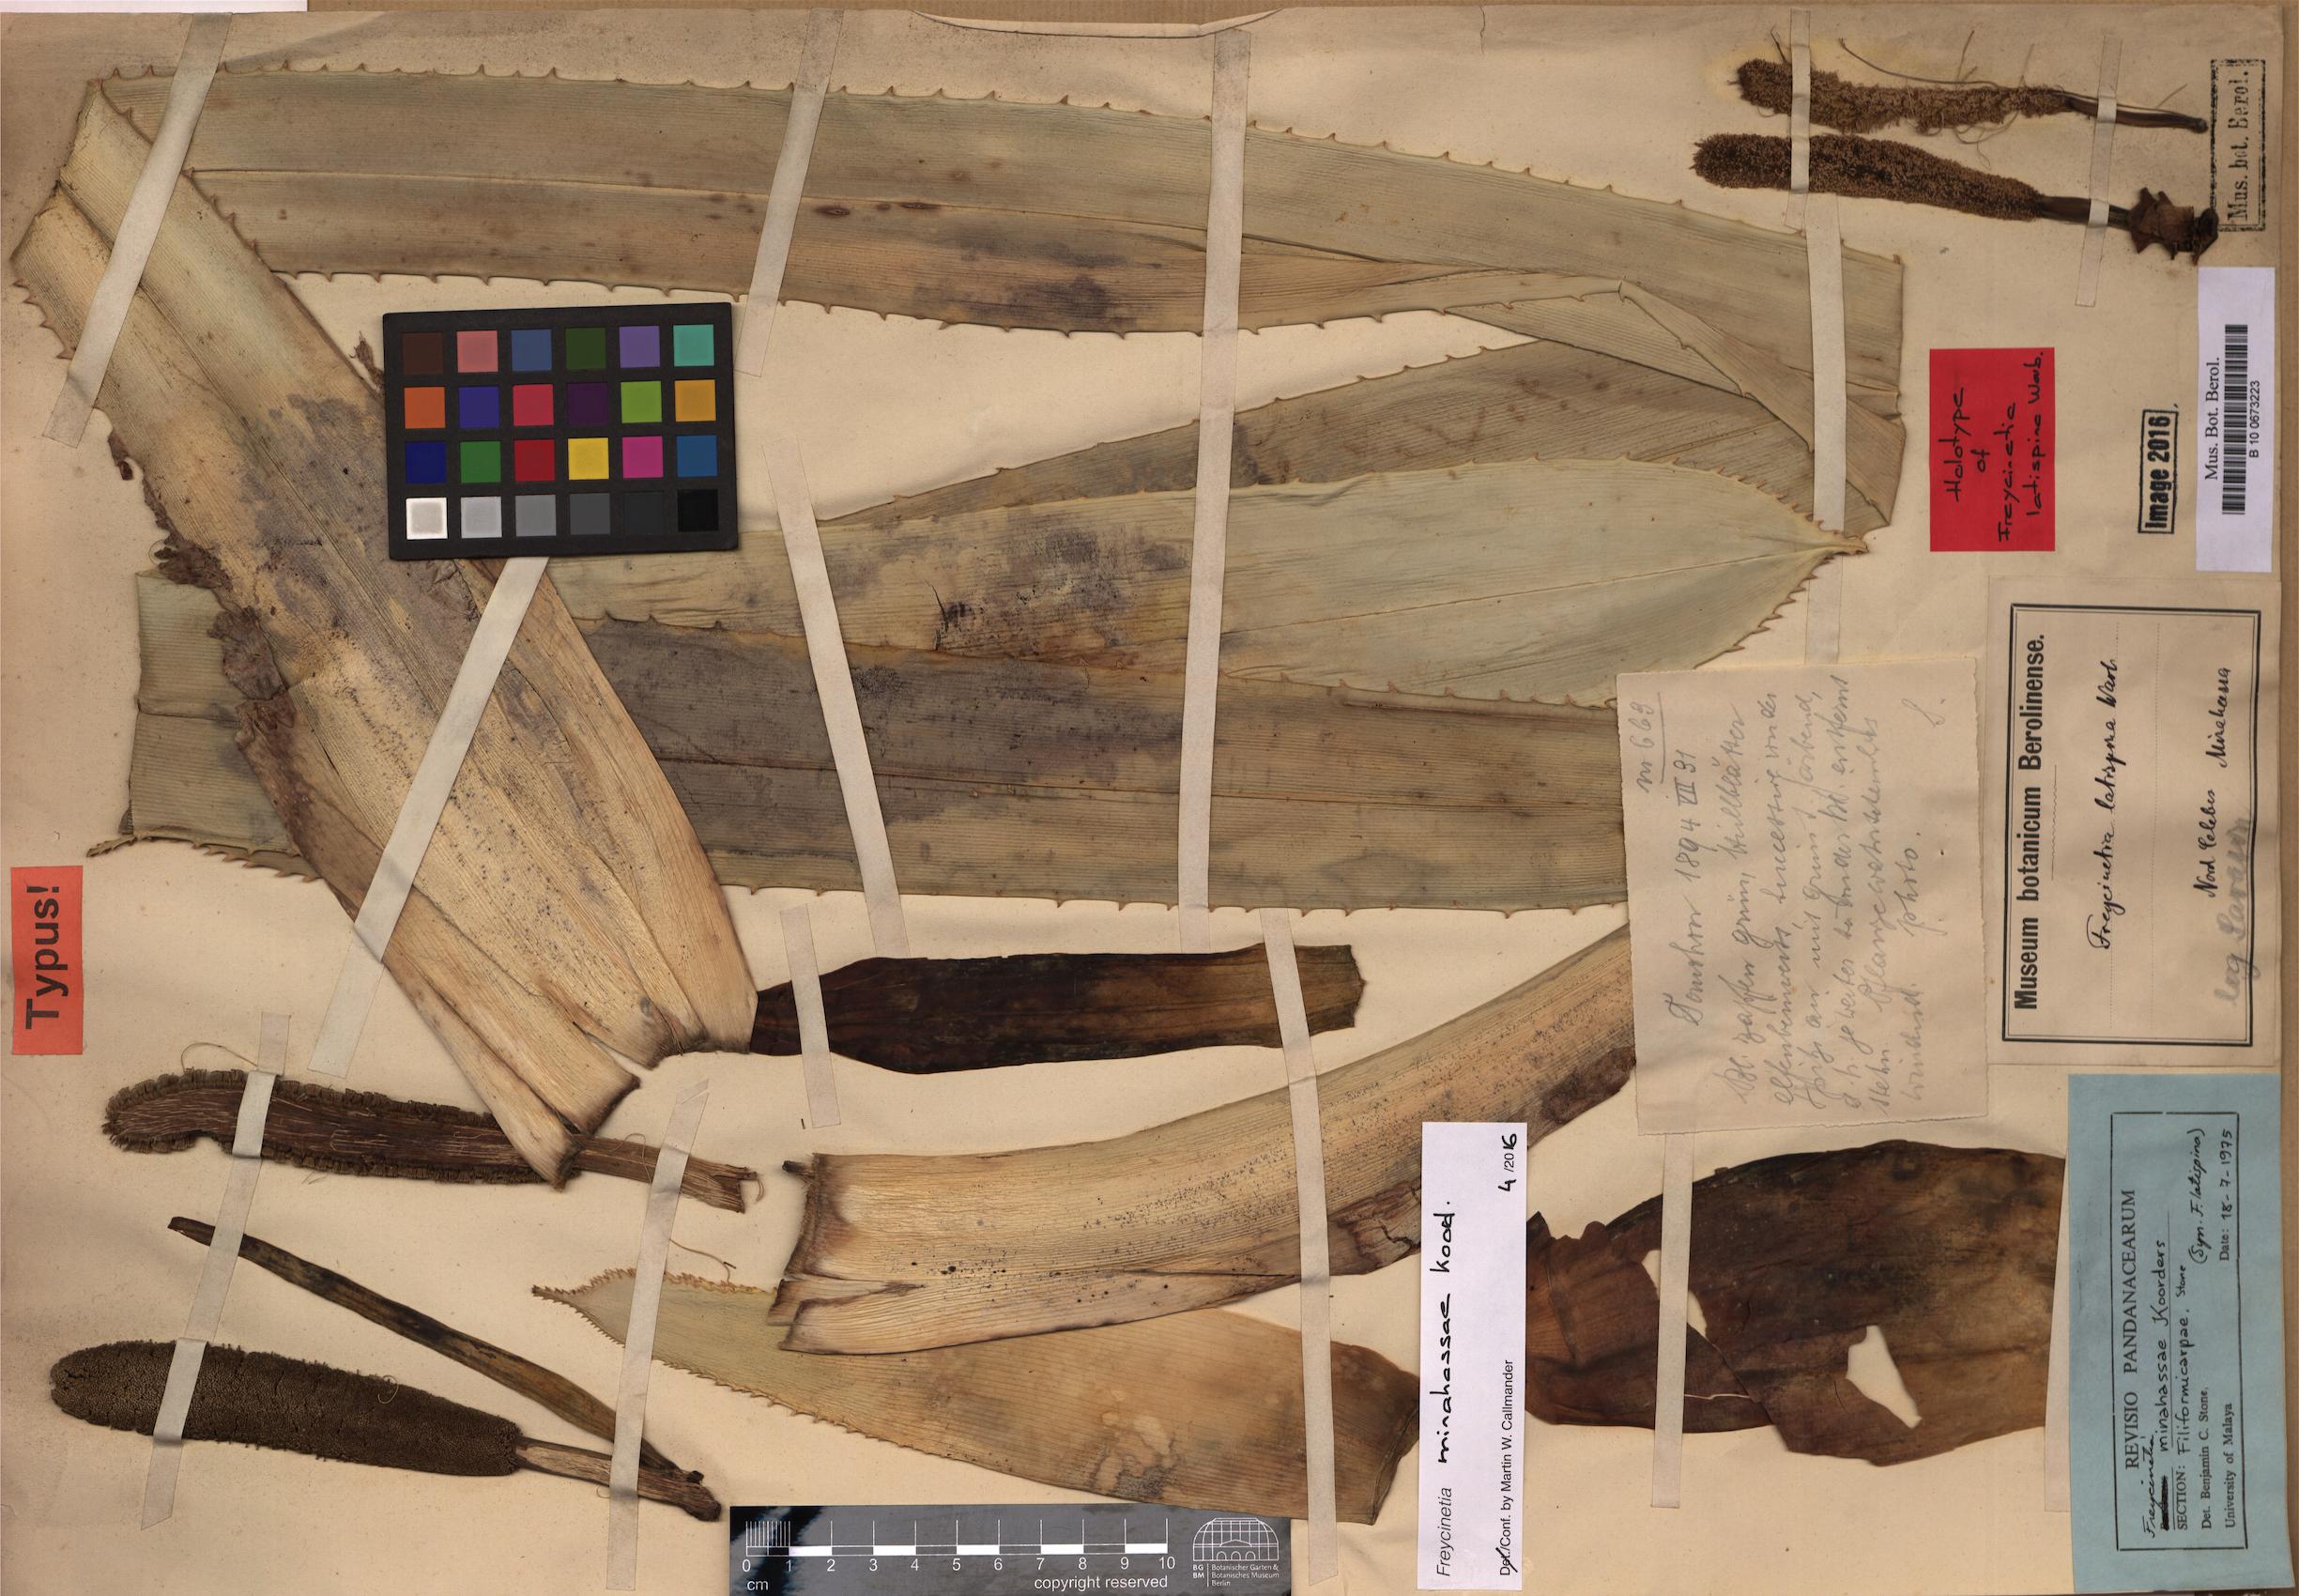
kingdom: Plantae
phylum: Tracheophyta
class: Liliopsida
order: Pandanales
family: Pandanaceae
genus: Freycinetia
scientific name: Freycinetia minahassae
